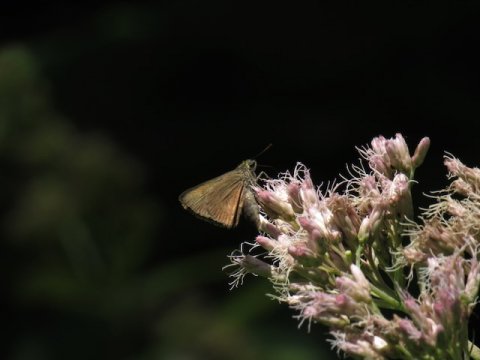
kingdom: Animalia
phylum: Arthropoda
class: Insecta
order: Lepidoptera
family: Hesperiidae
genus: Euphyes
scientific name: Euphyes
